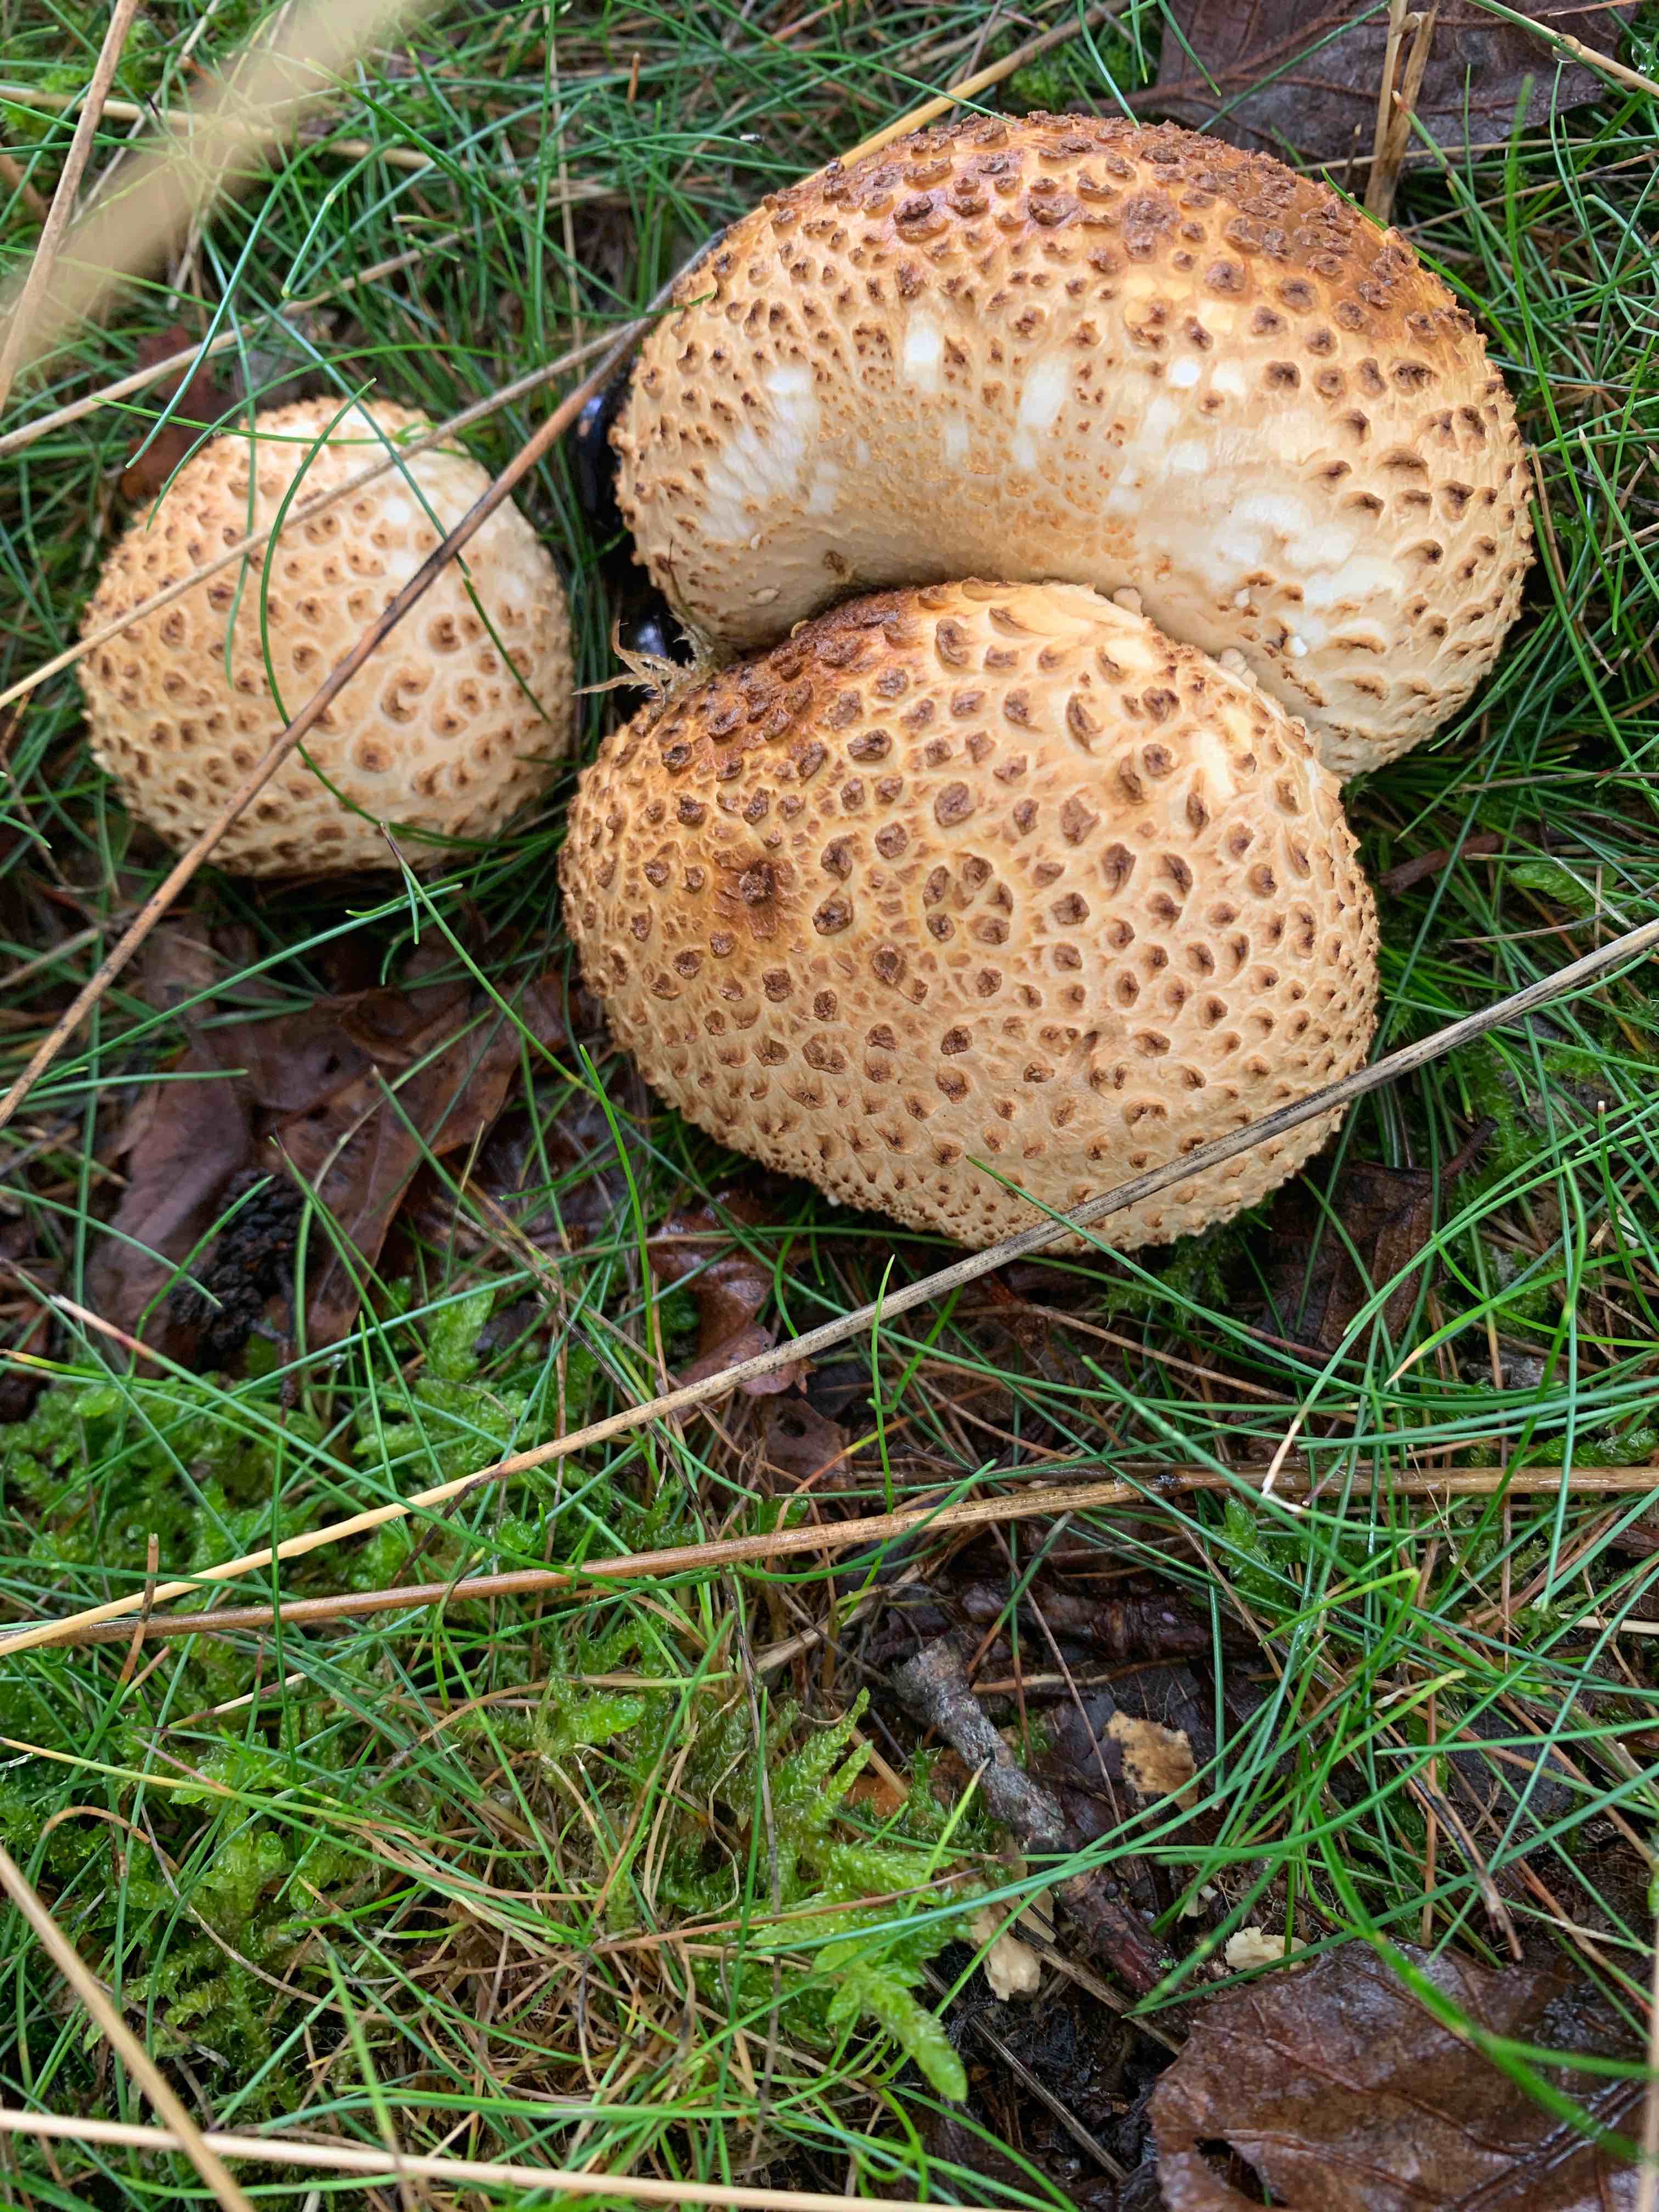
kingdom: Fungi
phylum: Basidiomycota
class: Agaricomycetes
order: Boletales
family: Sclerodermataceae
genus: Scleroderma
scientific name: Scleroderma citrinum
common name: almindelig bruskbold
